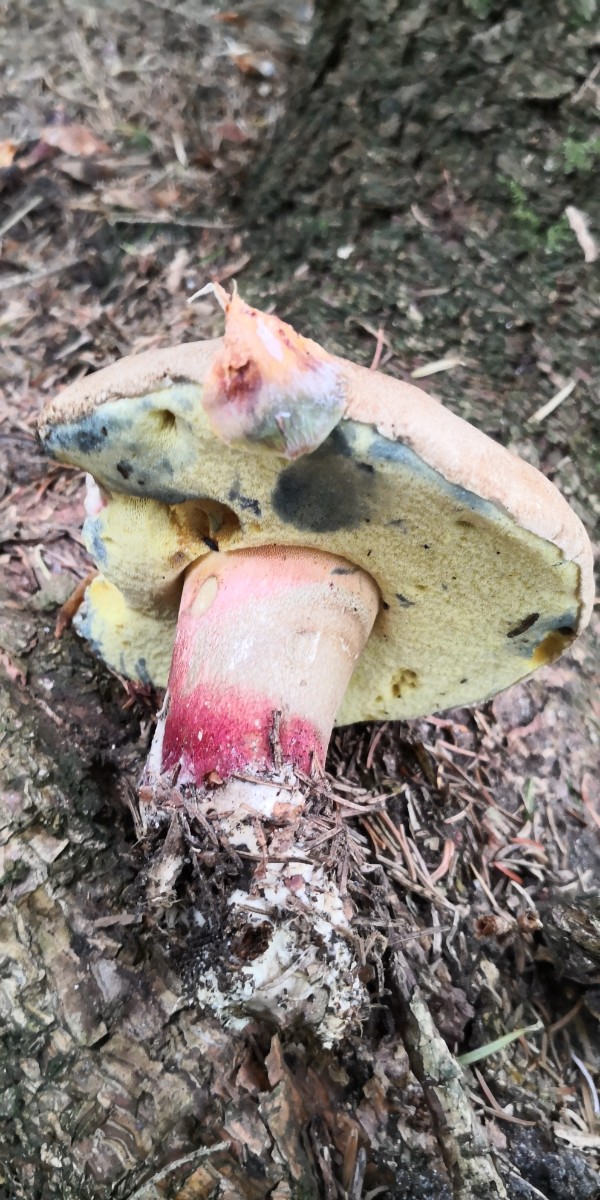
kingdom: Fungi
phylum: Basidiomycota
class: Agaricomycetes
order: Boletales
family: Boletaceae
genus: Caloboletus
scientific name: Caloboletus calopus
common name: skønfodet rørhat
